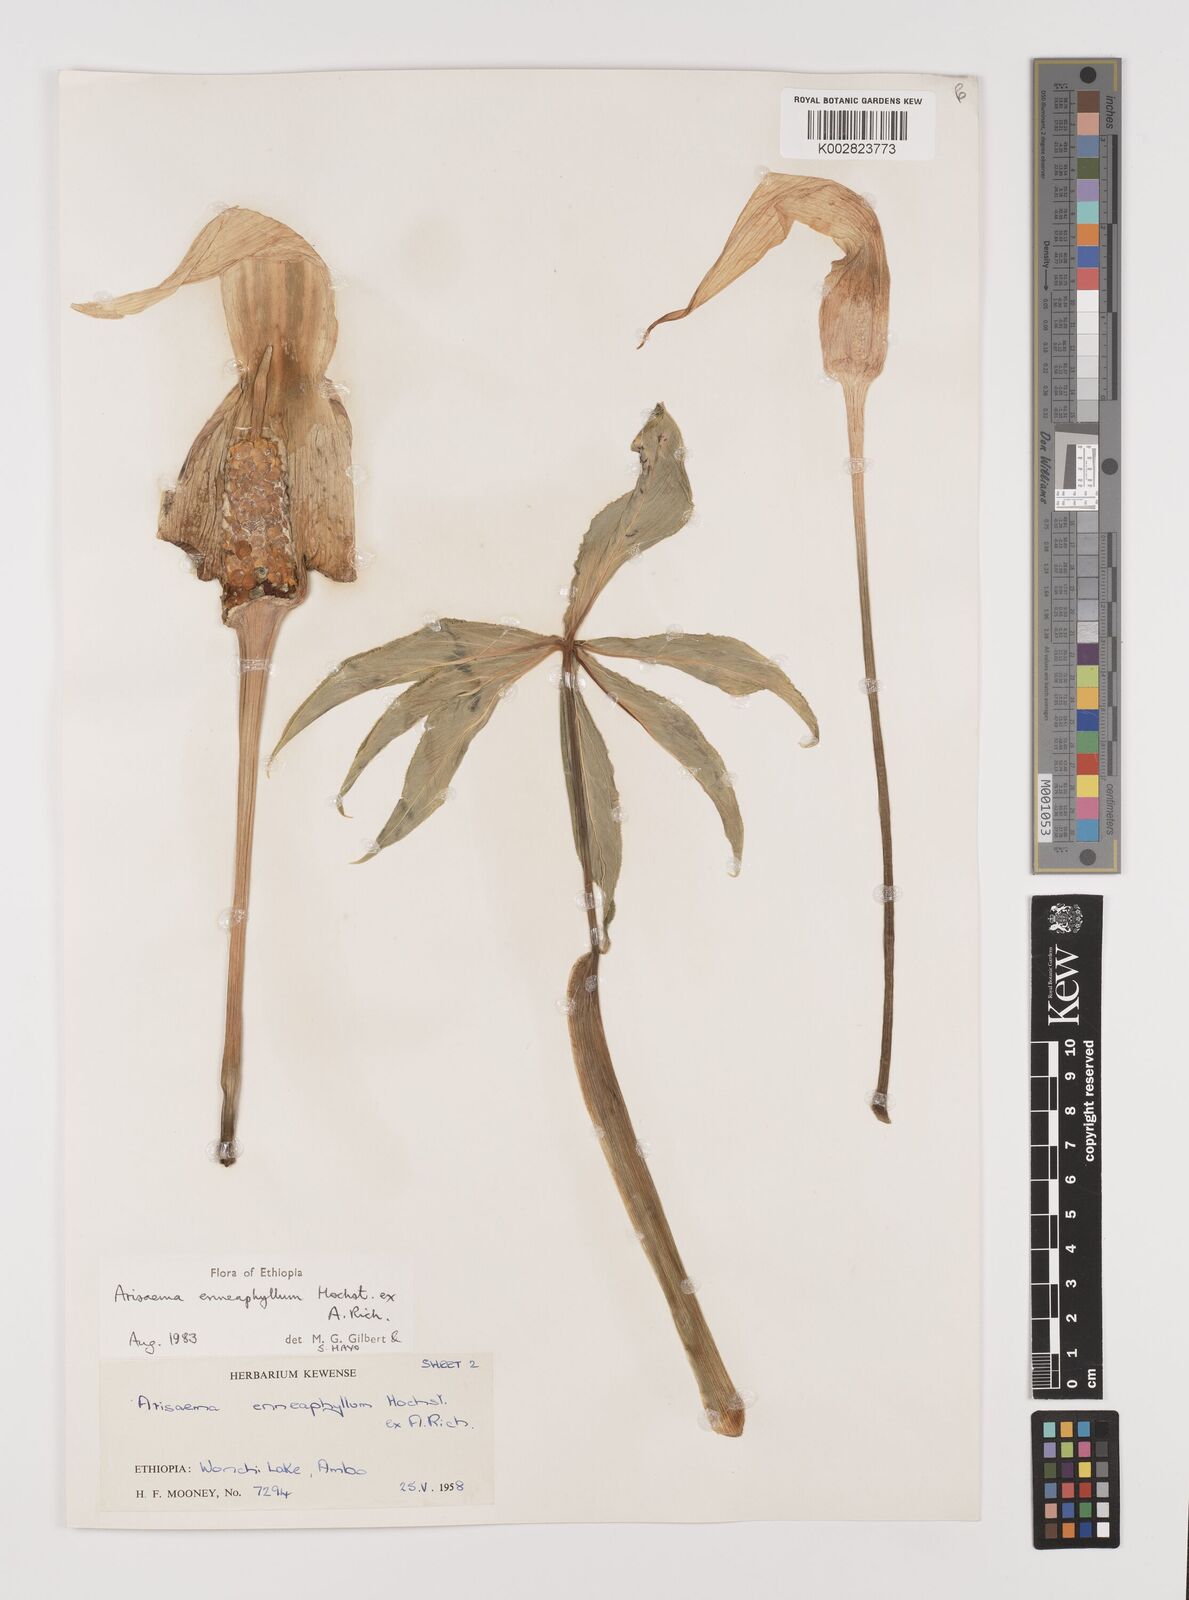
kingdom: Plantae
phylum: Tracheophyta
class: Liliopsida
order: Alismatales
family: Araceae
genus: Arisaema
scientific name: Arisaema enneaphyllum
